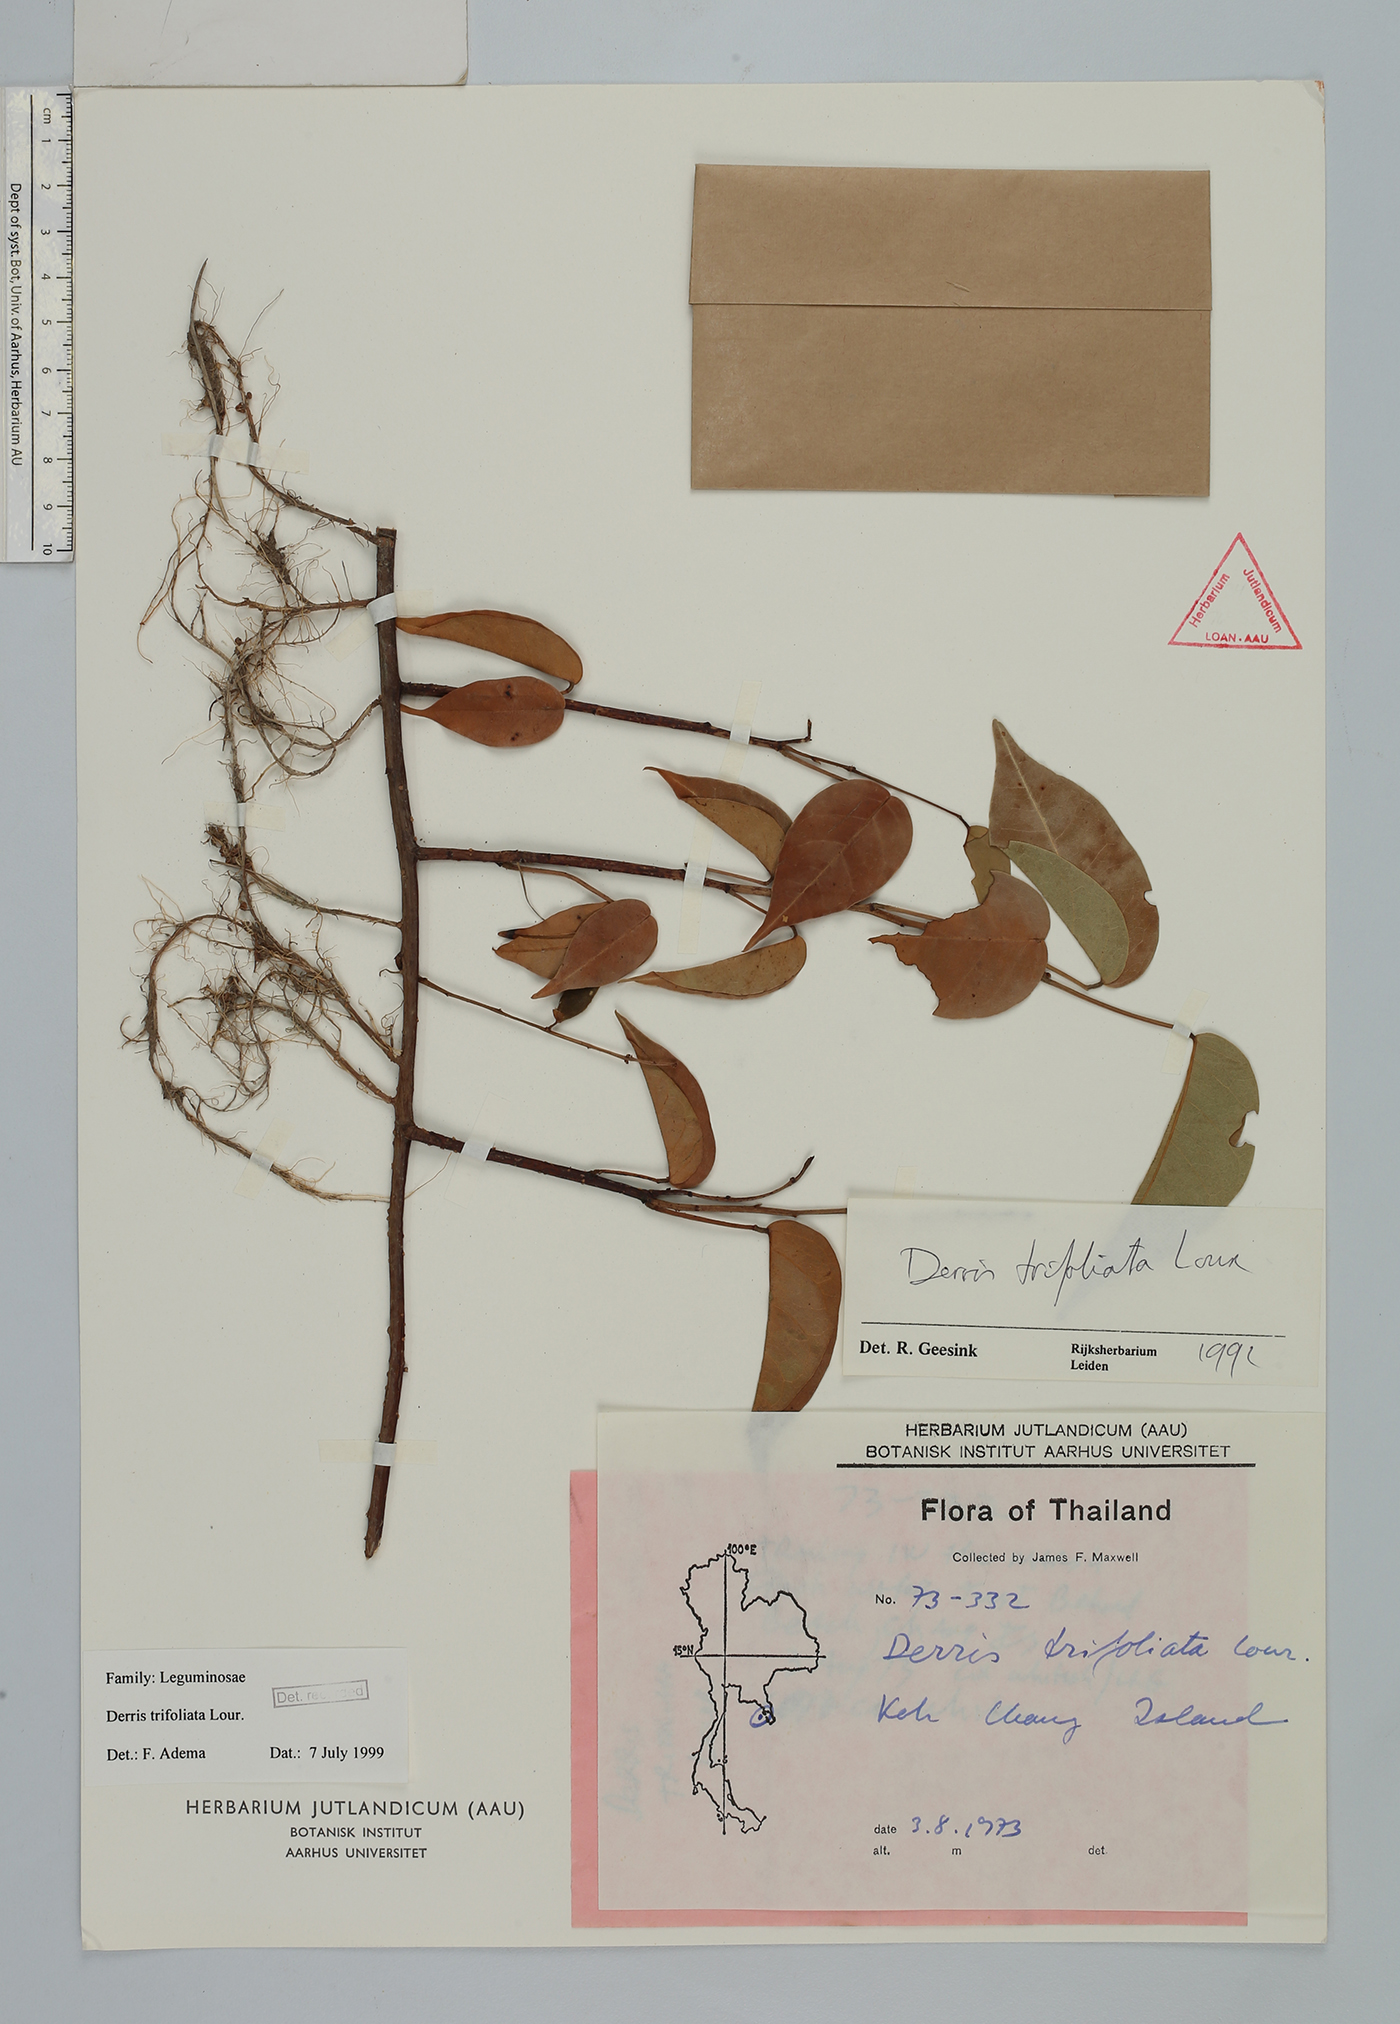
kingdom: Plantae
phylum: Tracheophyta
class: Magnoliopsida
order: Fabales
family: Fabaceae
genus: Derris
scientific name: Derris trifoliata
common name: Three-leaf derris
